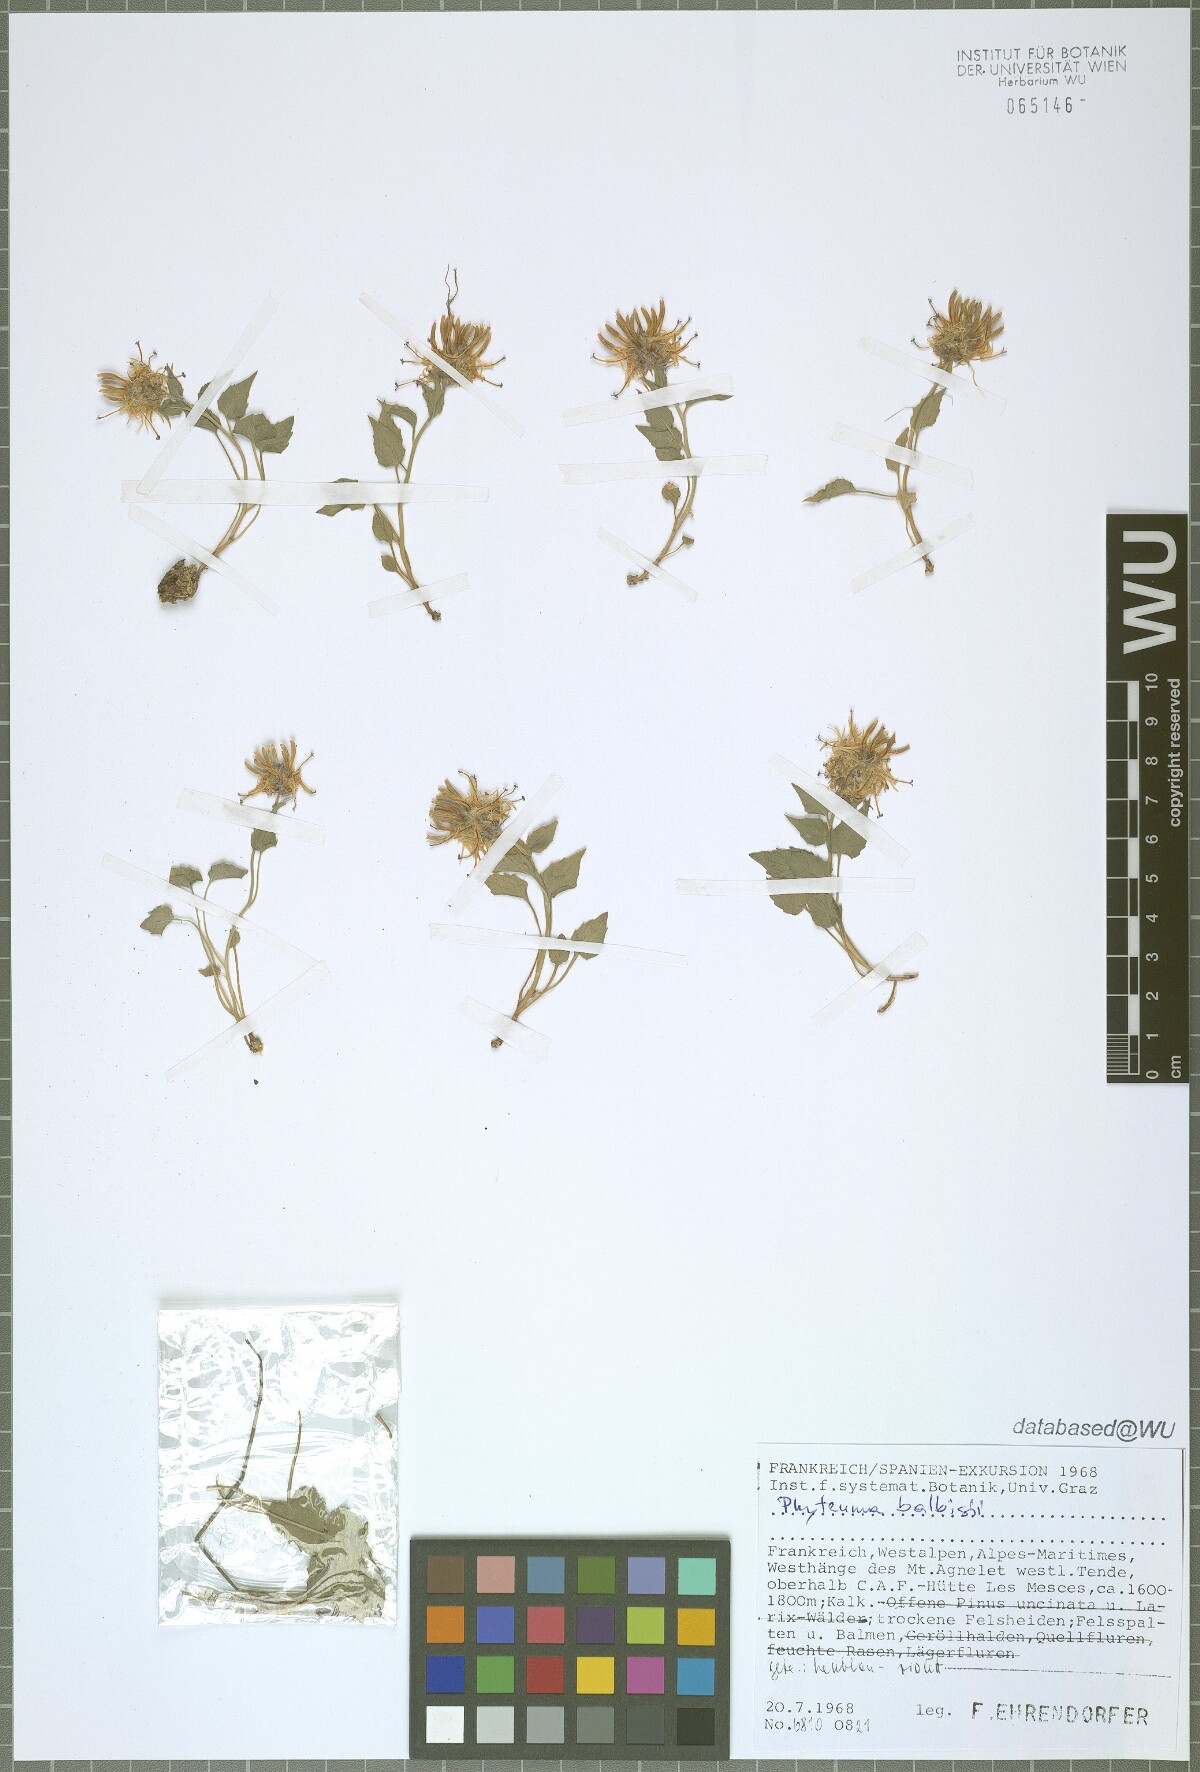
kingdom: Plantae
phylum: Tracheophyta
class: Magnoliopsida
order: Asterales
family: Campanulaceae
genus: Phyteuma
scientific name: Phyteuma cordatum
